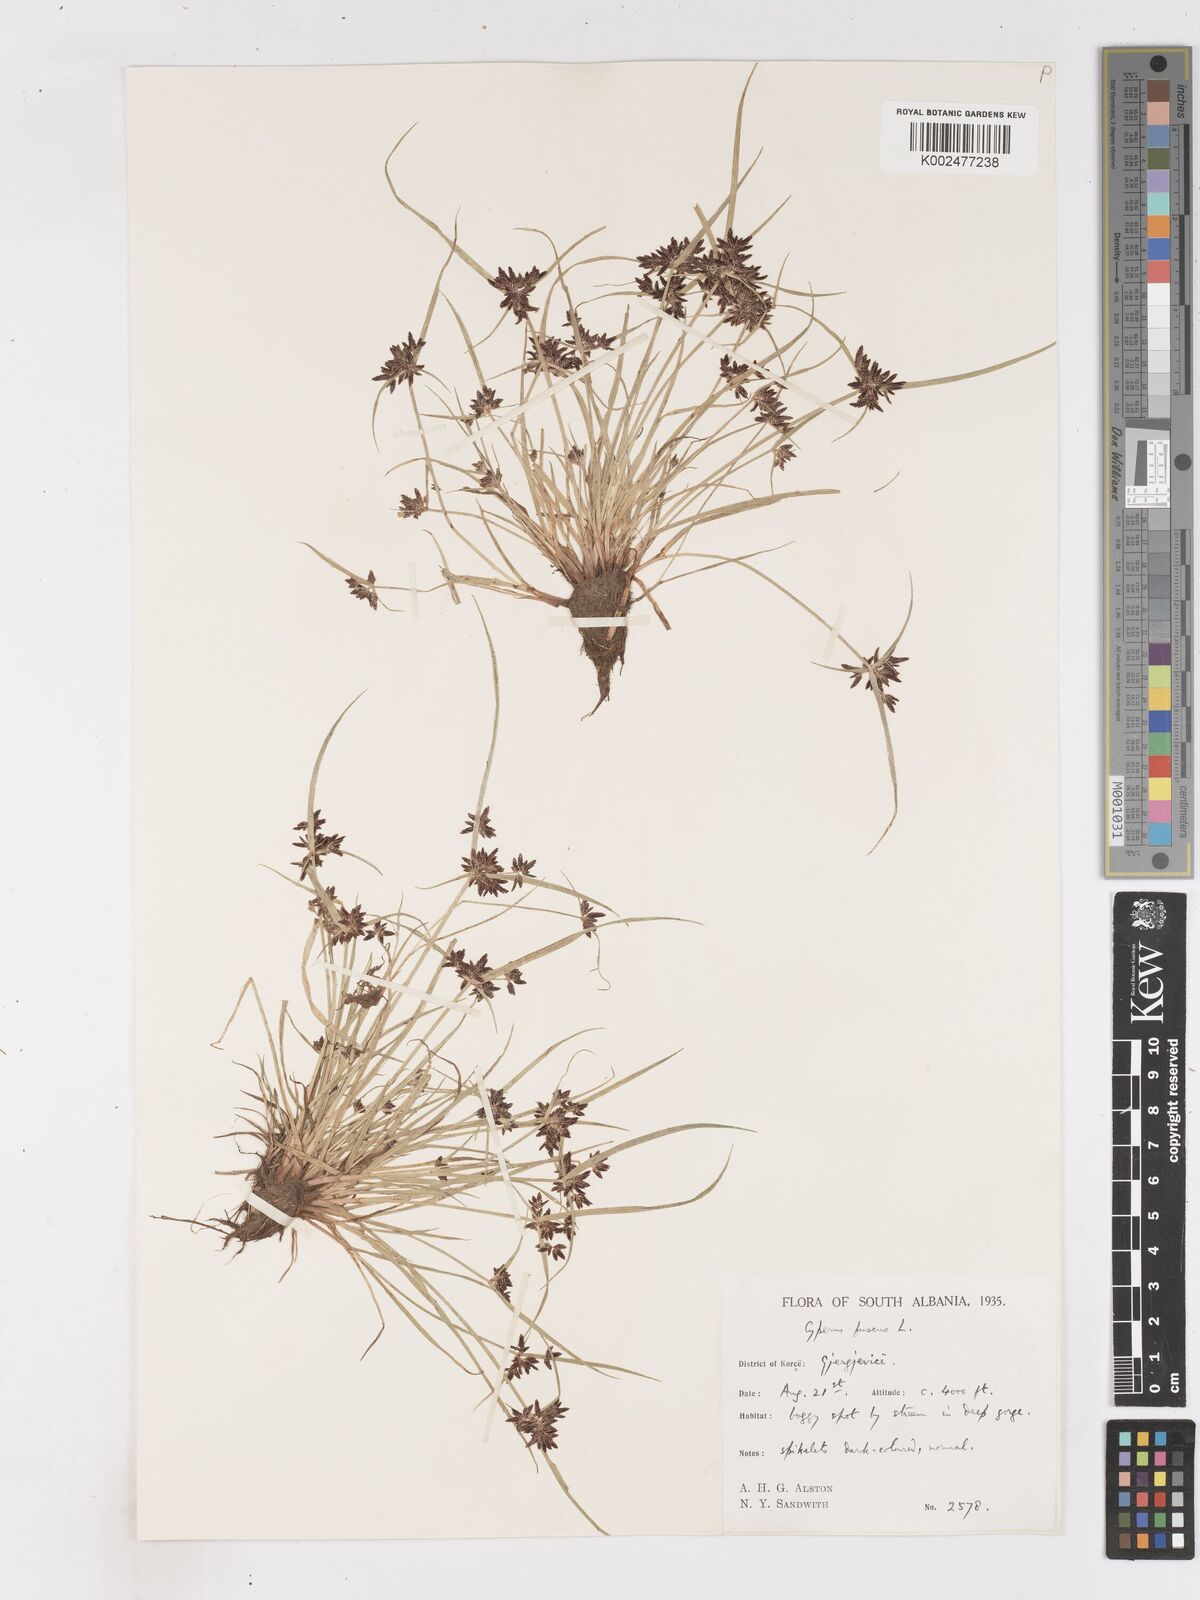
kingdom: Plantae
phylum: Tracheophyta
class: Liliopsida
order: Poales
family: Cyperaceae
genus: Cyperus
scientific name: Cyperus fuscus
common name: Brown galingale
